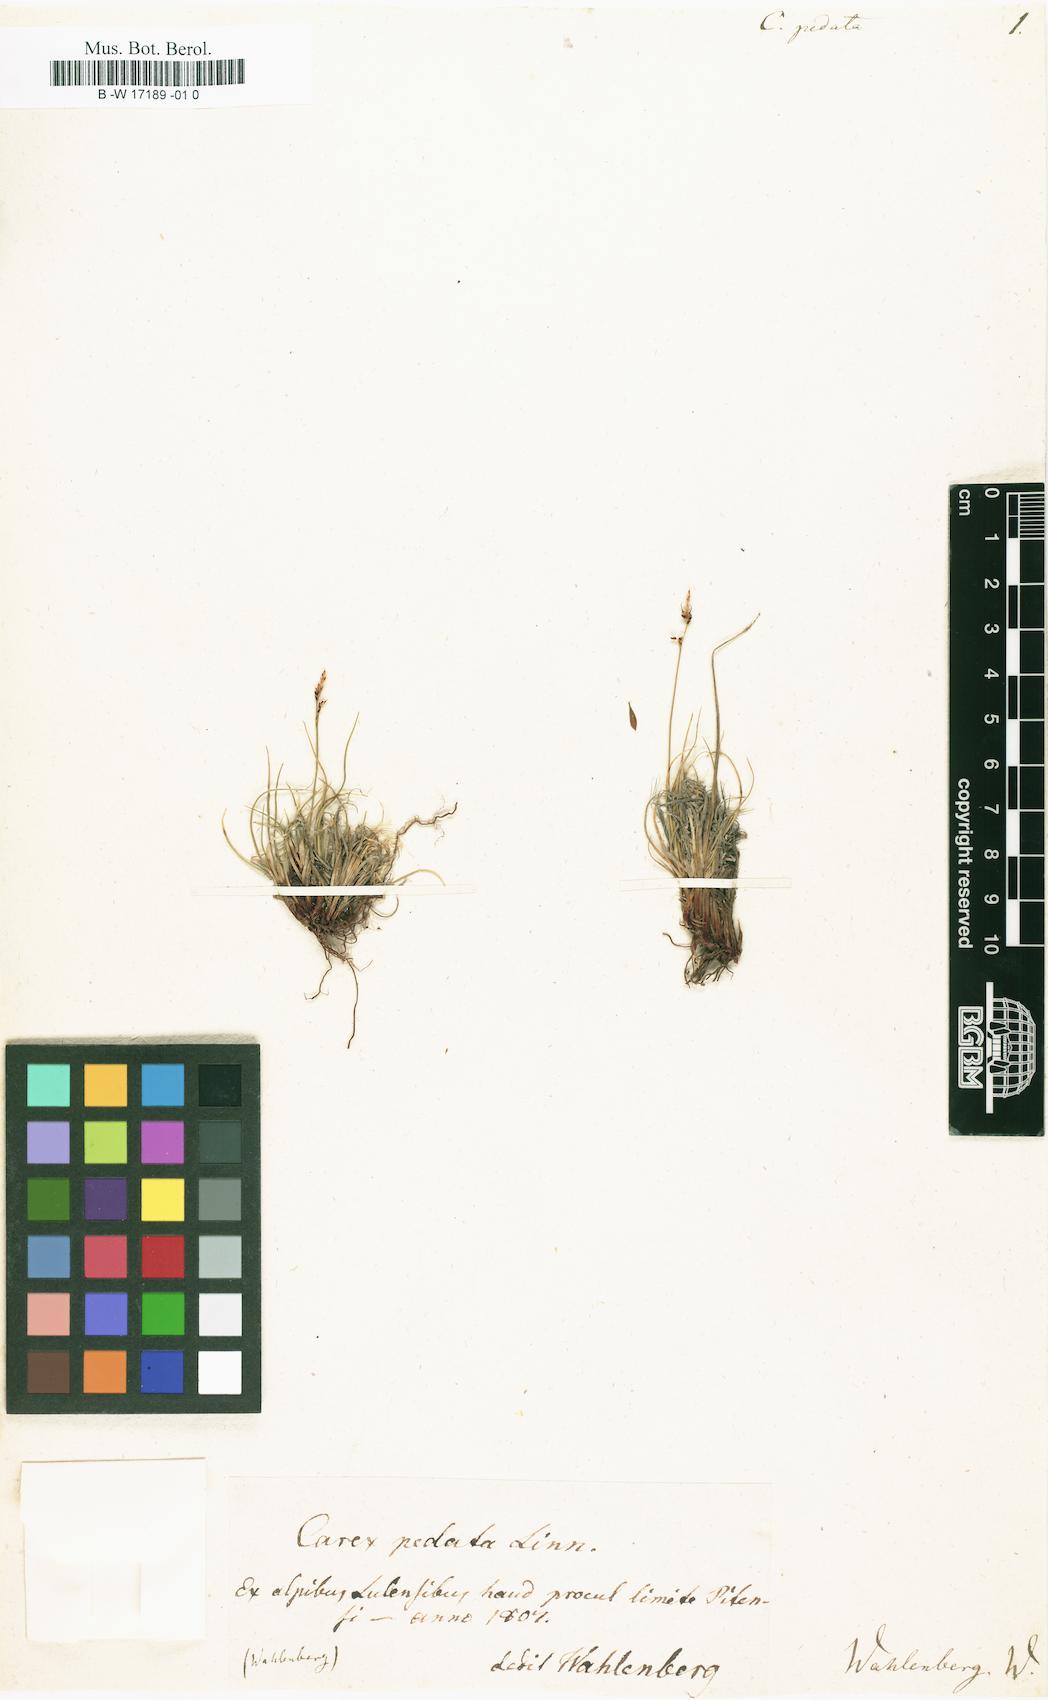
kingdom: Plantae
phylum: Tracheophyta
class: Liliopsida
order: Poales
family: Cyperaceae
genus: Carex
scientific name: Carex
